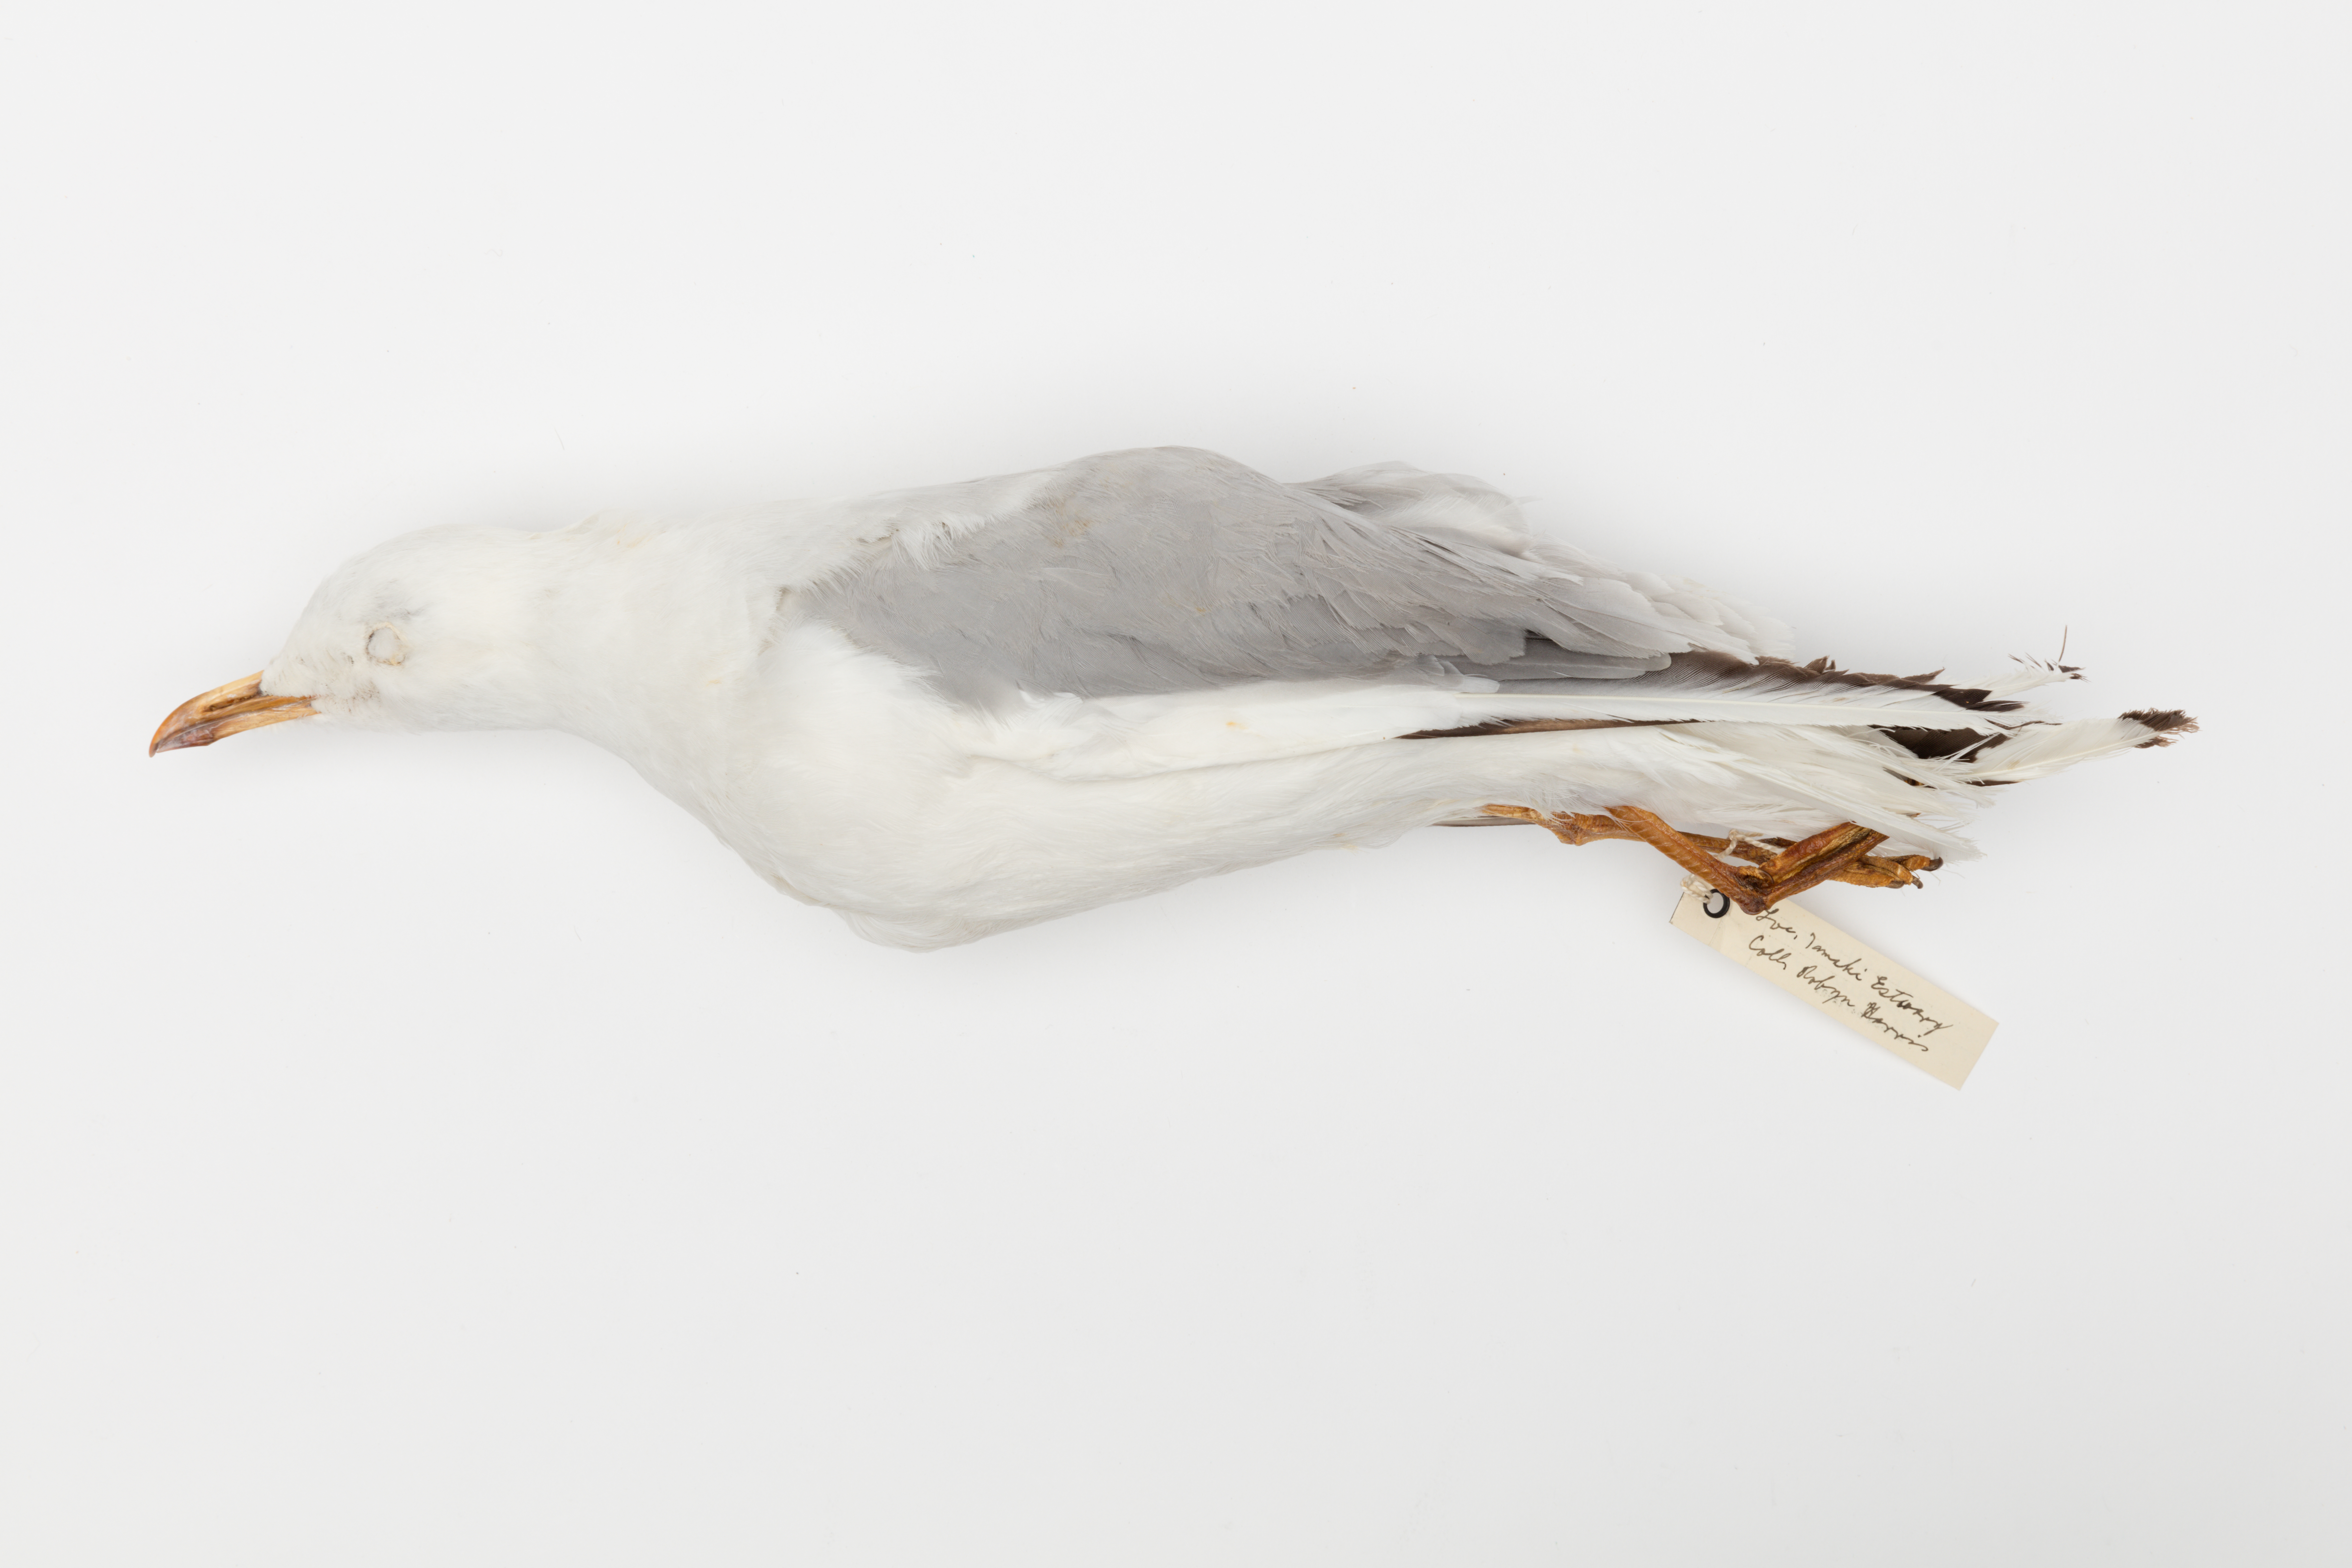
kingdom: Animalia
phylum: Chordata
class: Aves
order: Charadriiformes
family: Laridae
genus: Chroicocephalus
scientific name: Chroicocephalus novaehollandiae
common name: Silver gull
